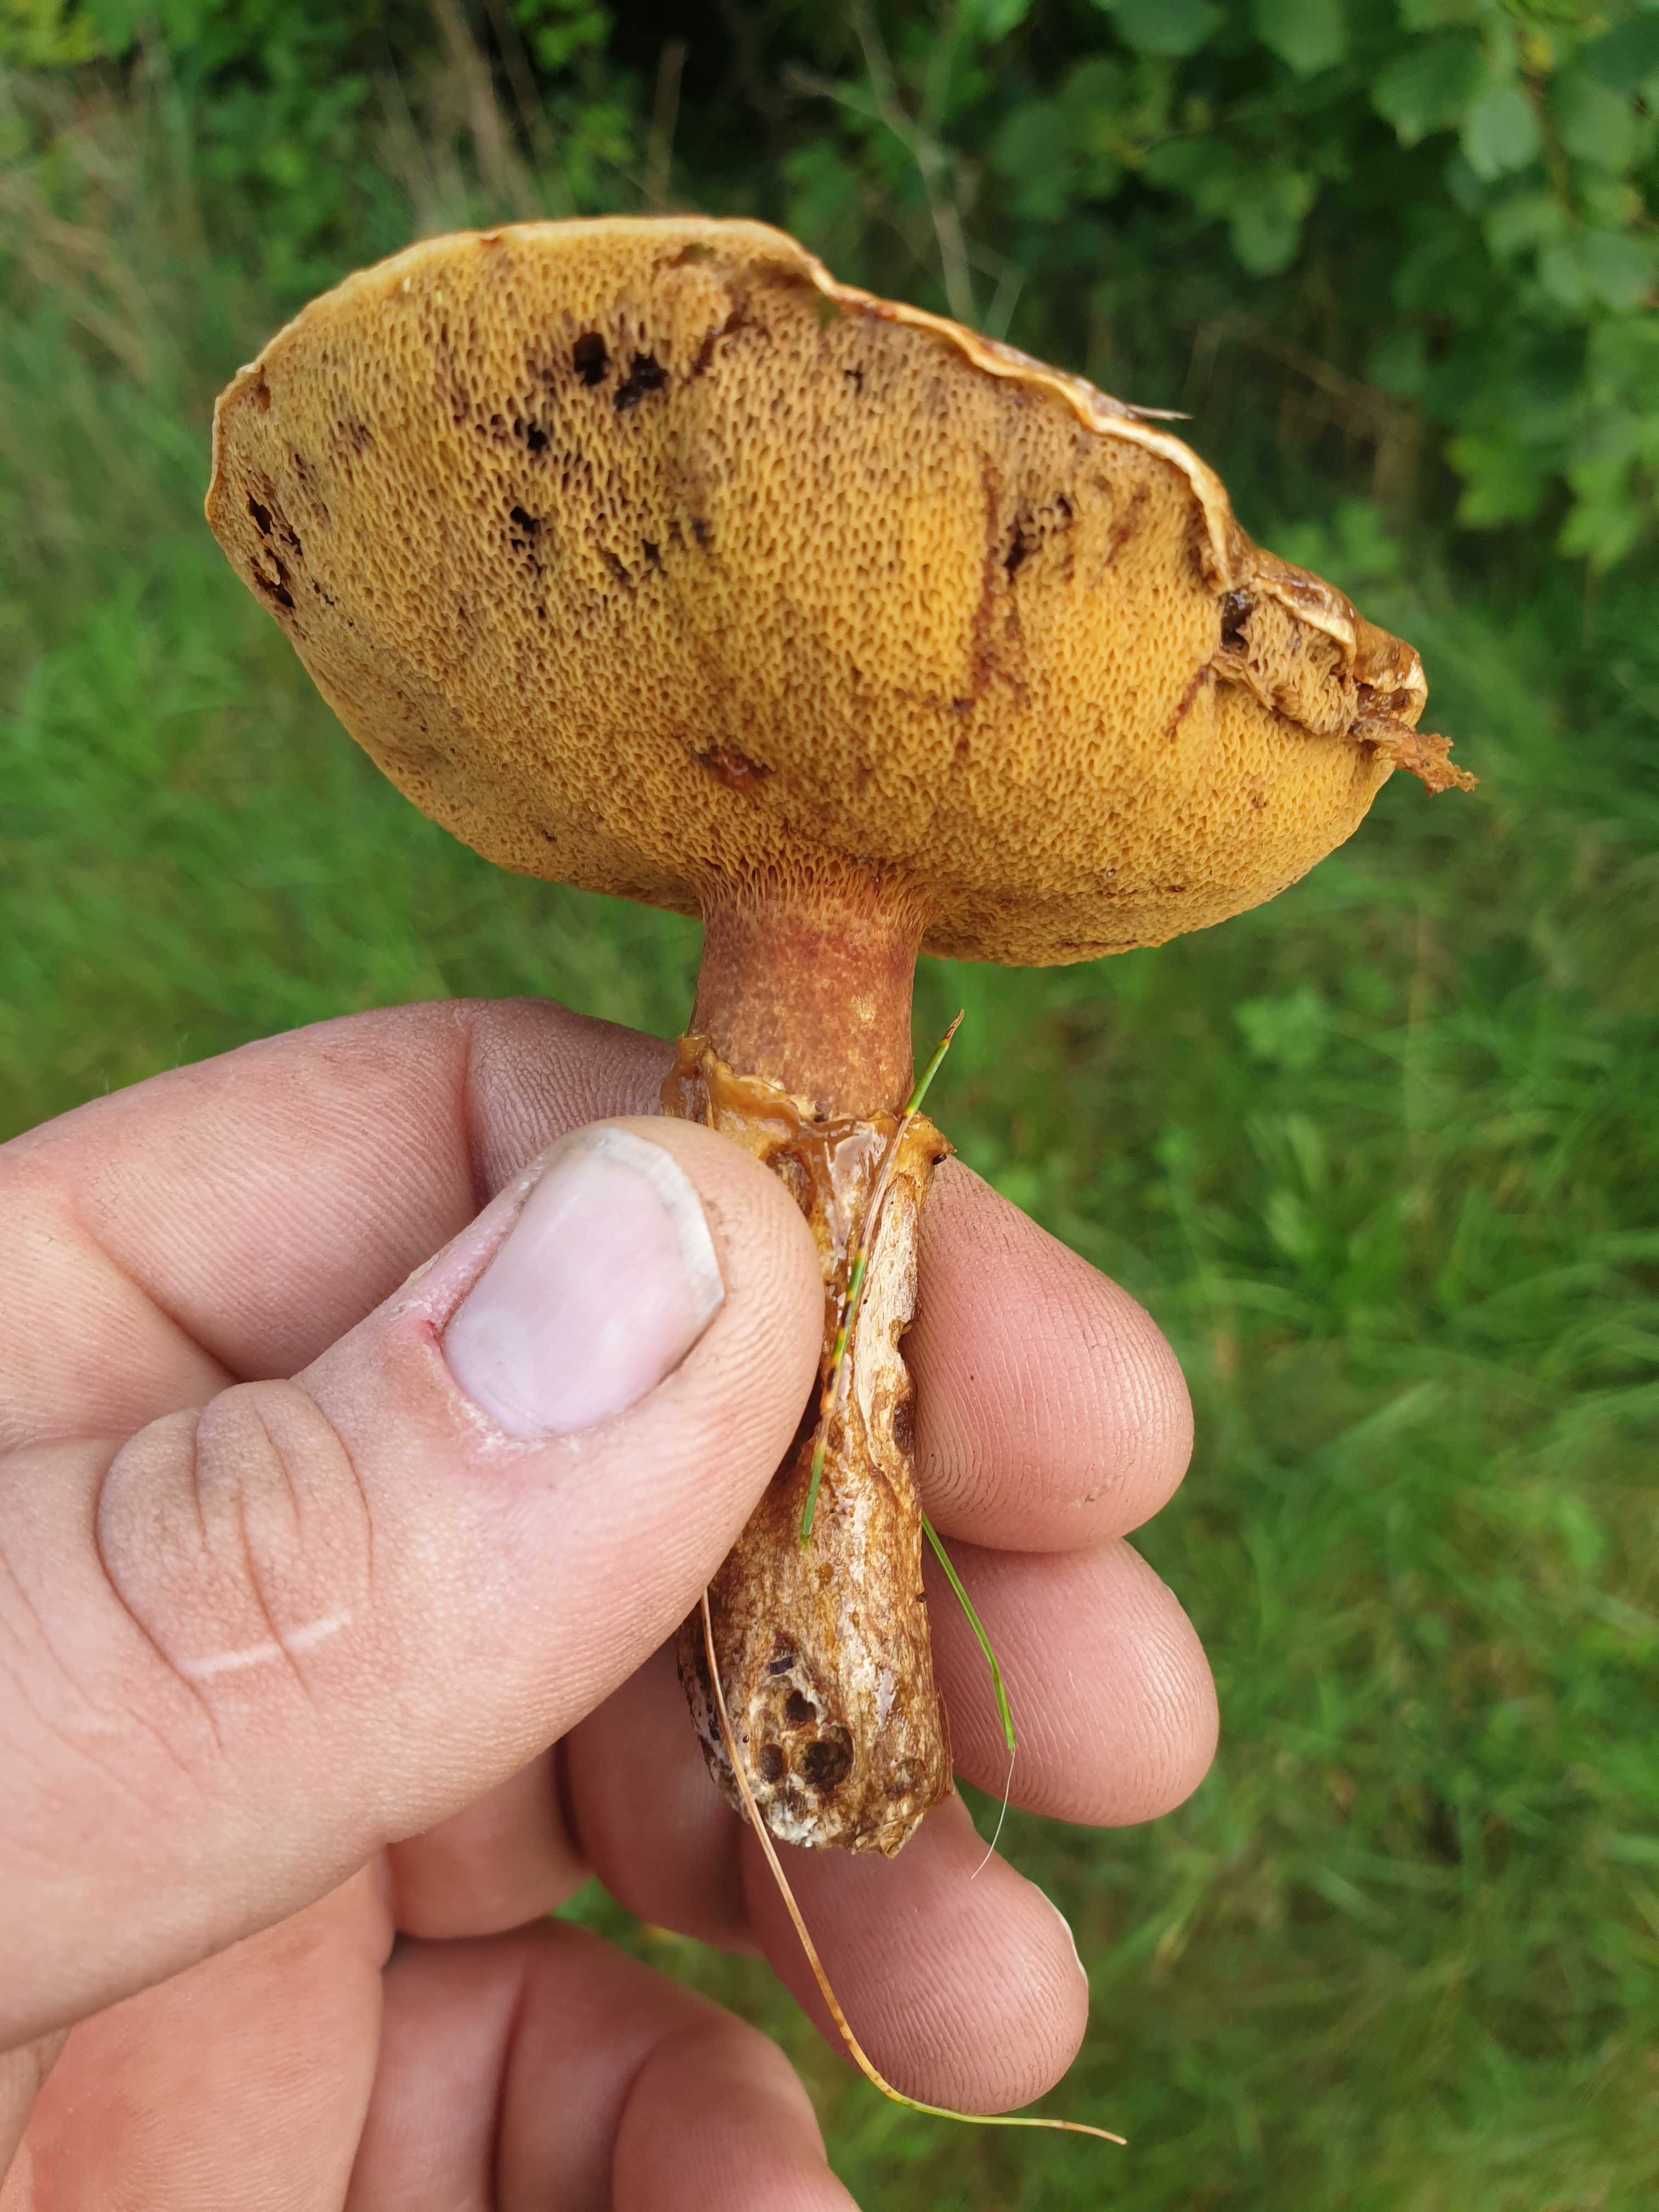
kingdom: Fungi
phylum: Basidiomycota
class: Agaricomycetes
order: Boletales
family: Suillaceae
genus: Suillus
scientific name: Suillus grevillei
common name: lærke-slimrørhat
